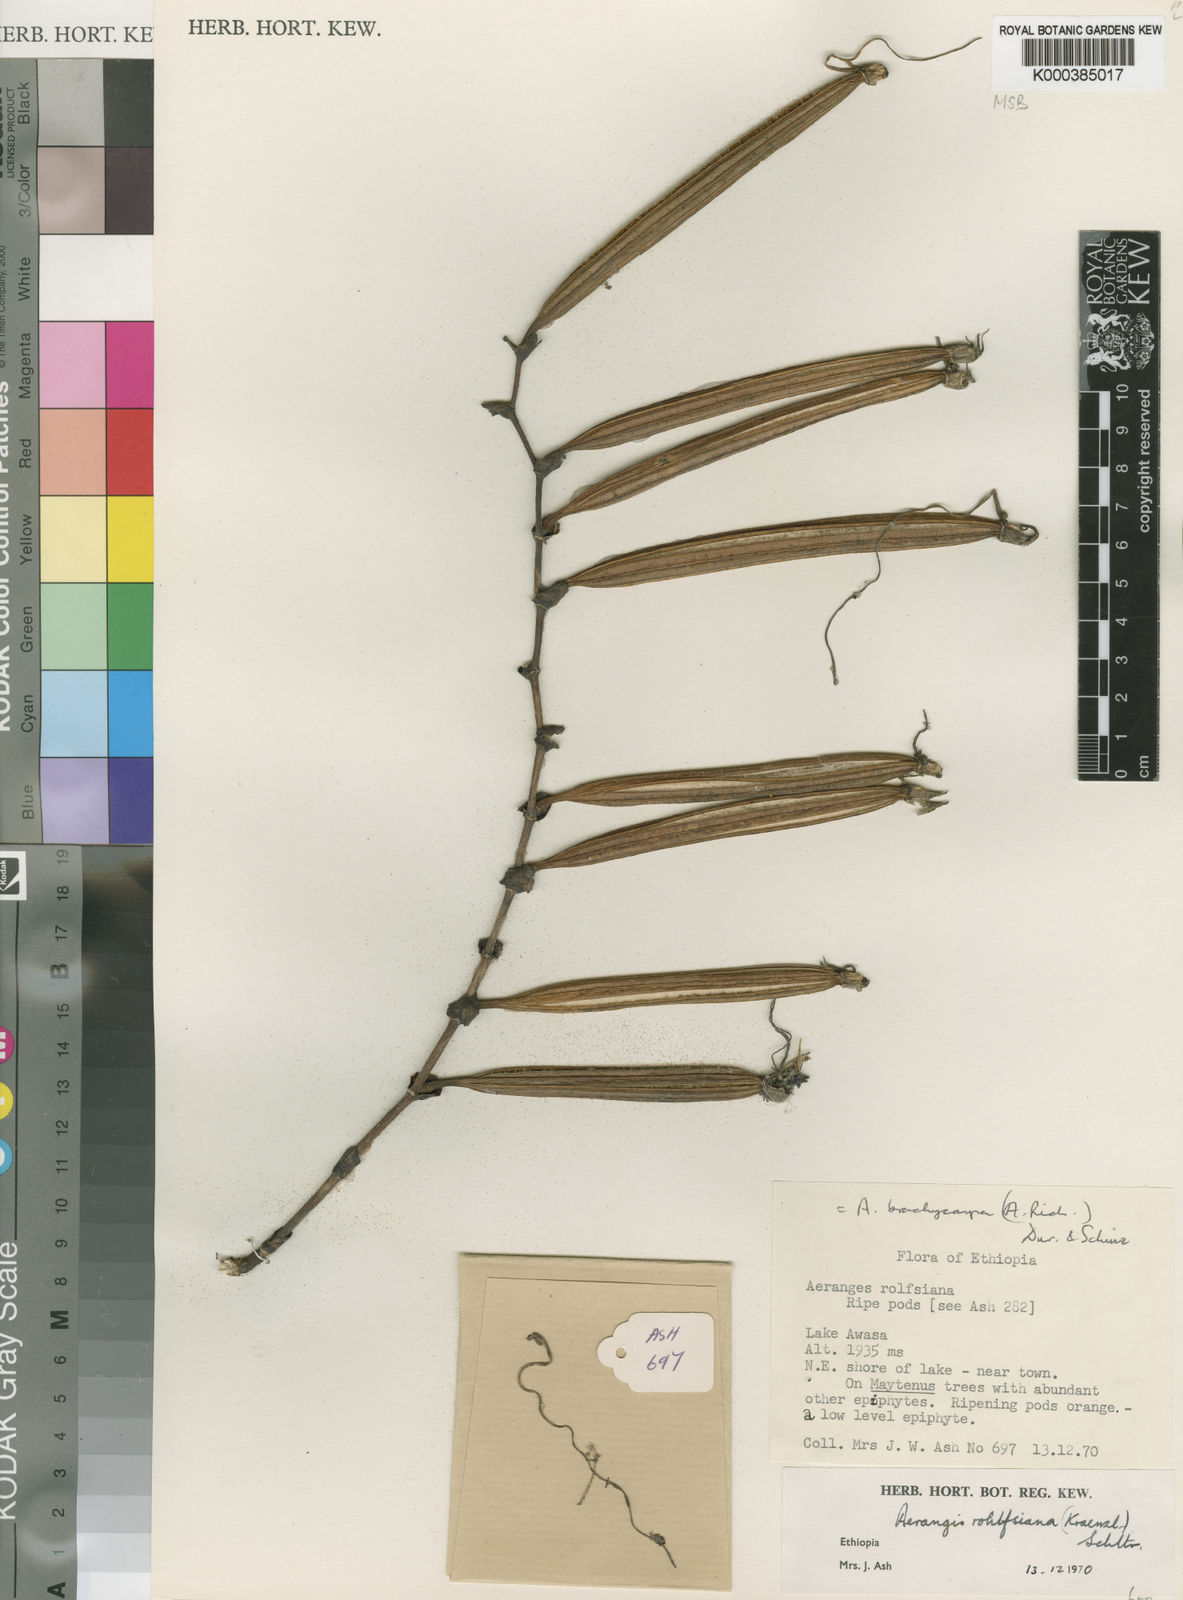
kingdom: Plantae
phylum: Tracheophyta
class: Liliopsida
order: Asparagales
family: Orchidaceae
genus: Aerangis
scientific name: Aerangis brachycarpa
